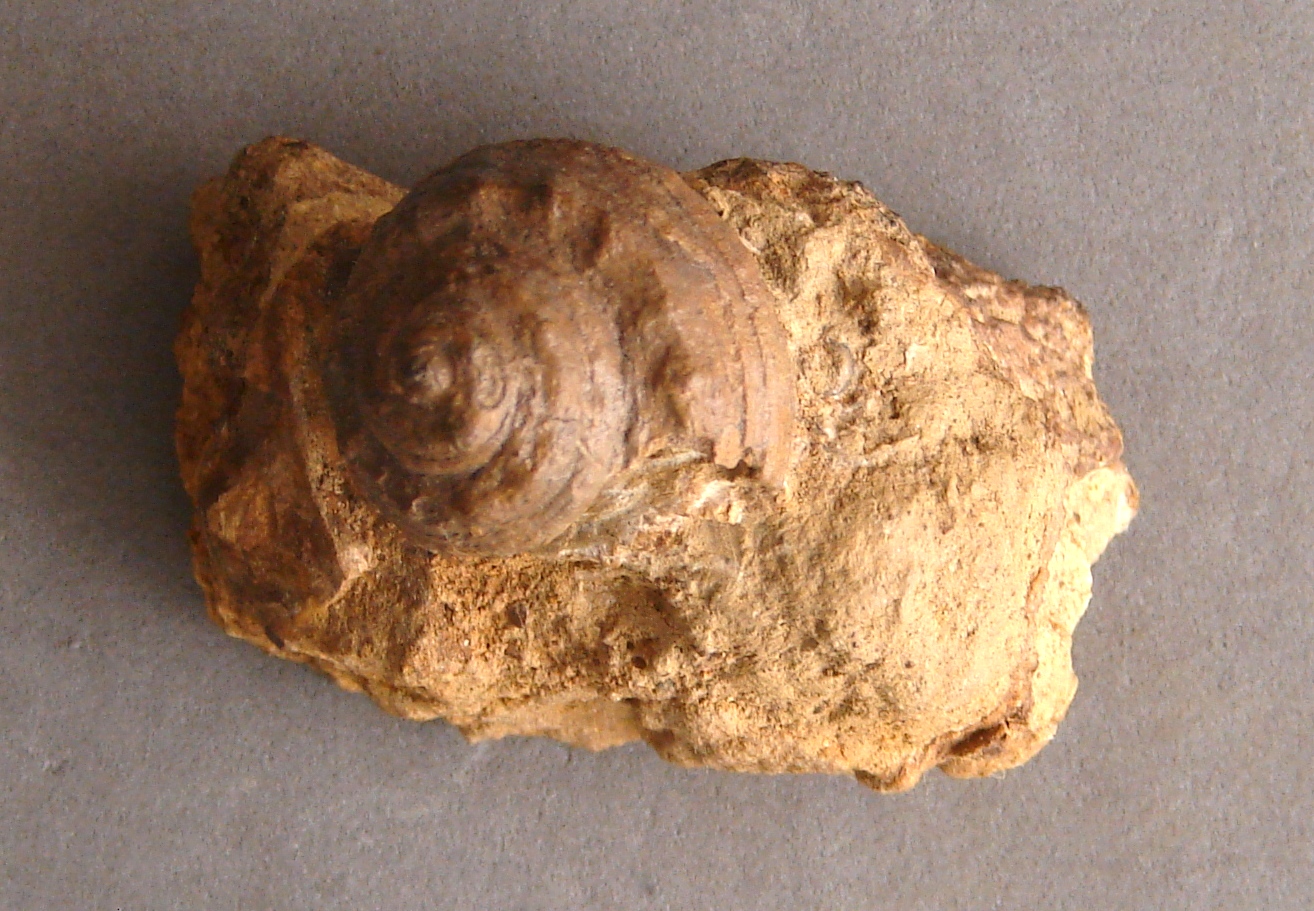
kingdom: Animalia
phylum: Mollusca
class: Gastropoda
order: Pleurotomariida
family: Pleurotomariidae
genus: Pleurotomaria
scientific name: Pleurotomaria armata
